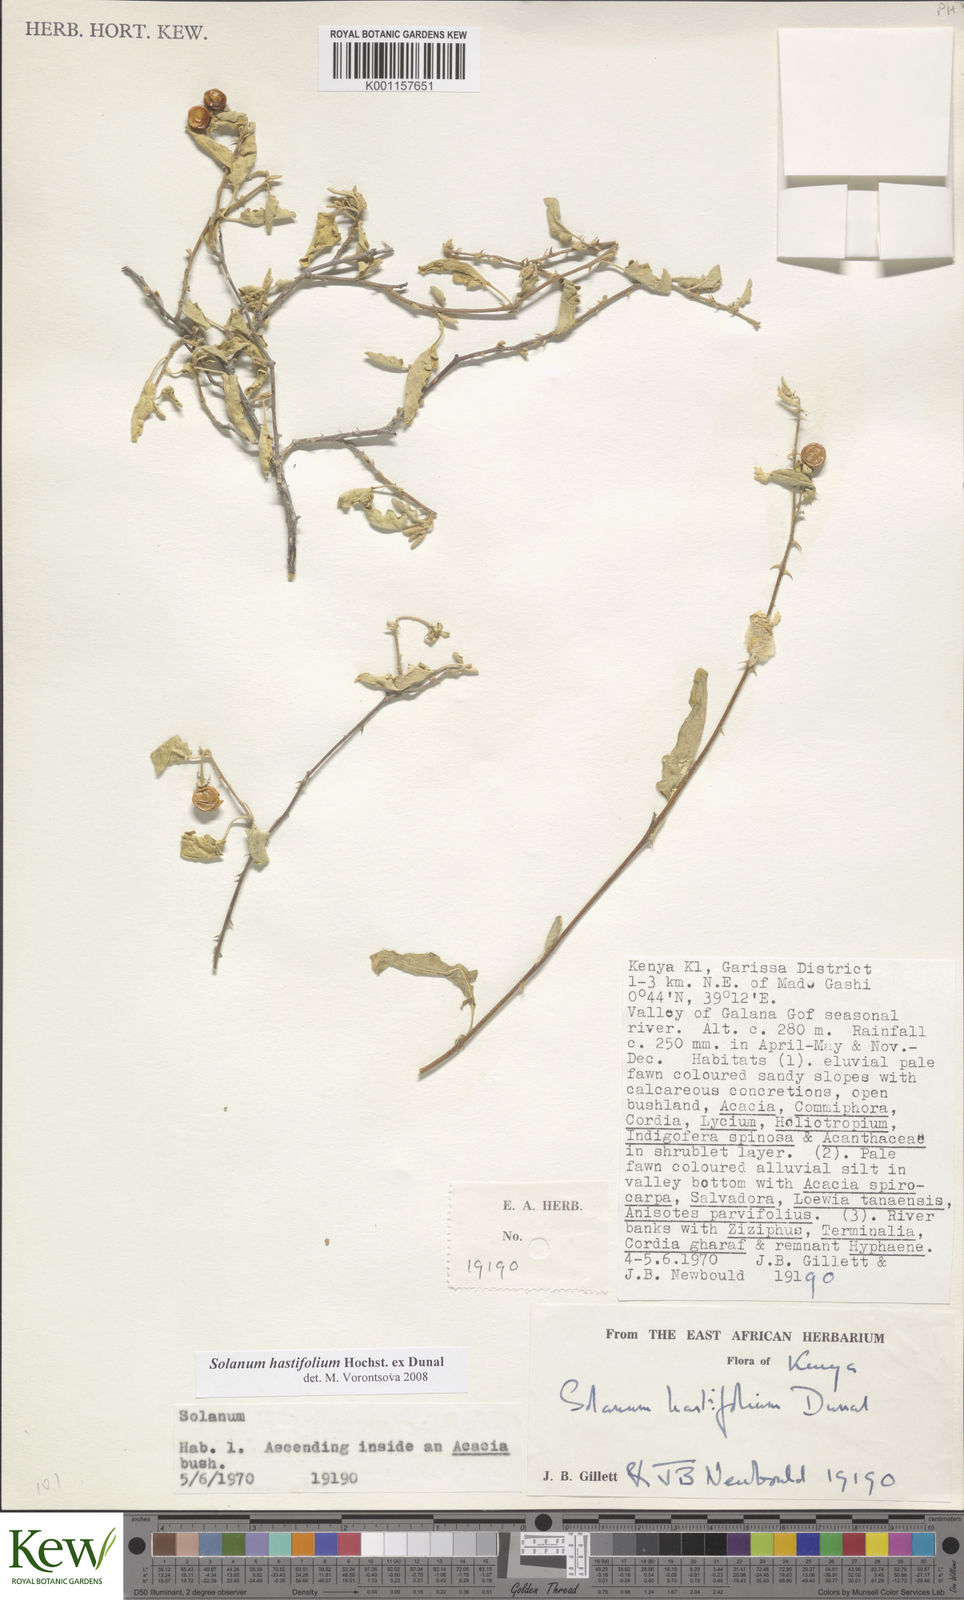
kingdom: Plantae
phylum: Tracheophyta
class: Magnoliopsida
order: Solanales
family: Solanaceae
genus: Solanum
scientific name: Solanum hastifolium
